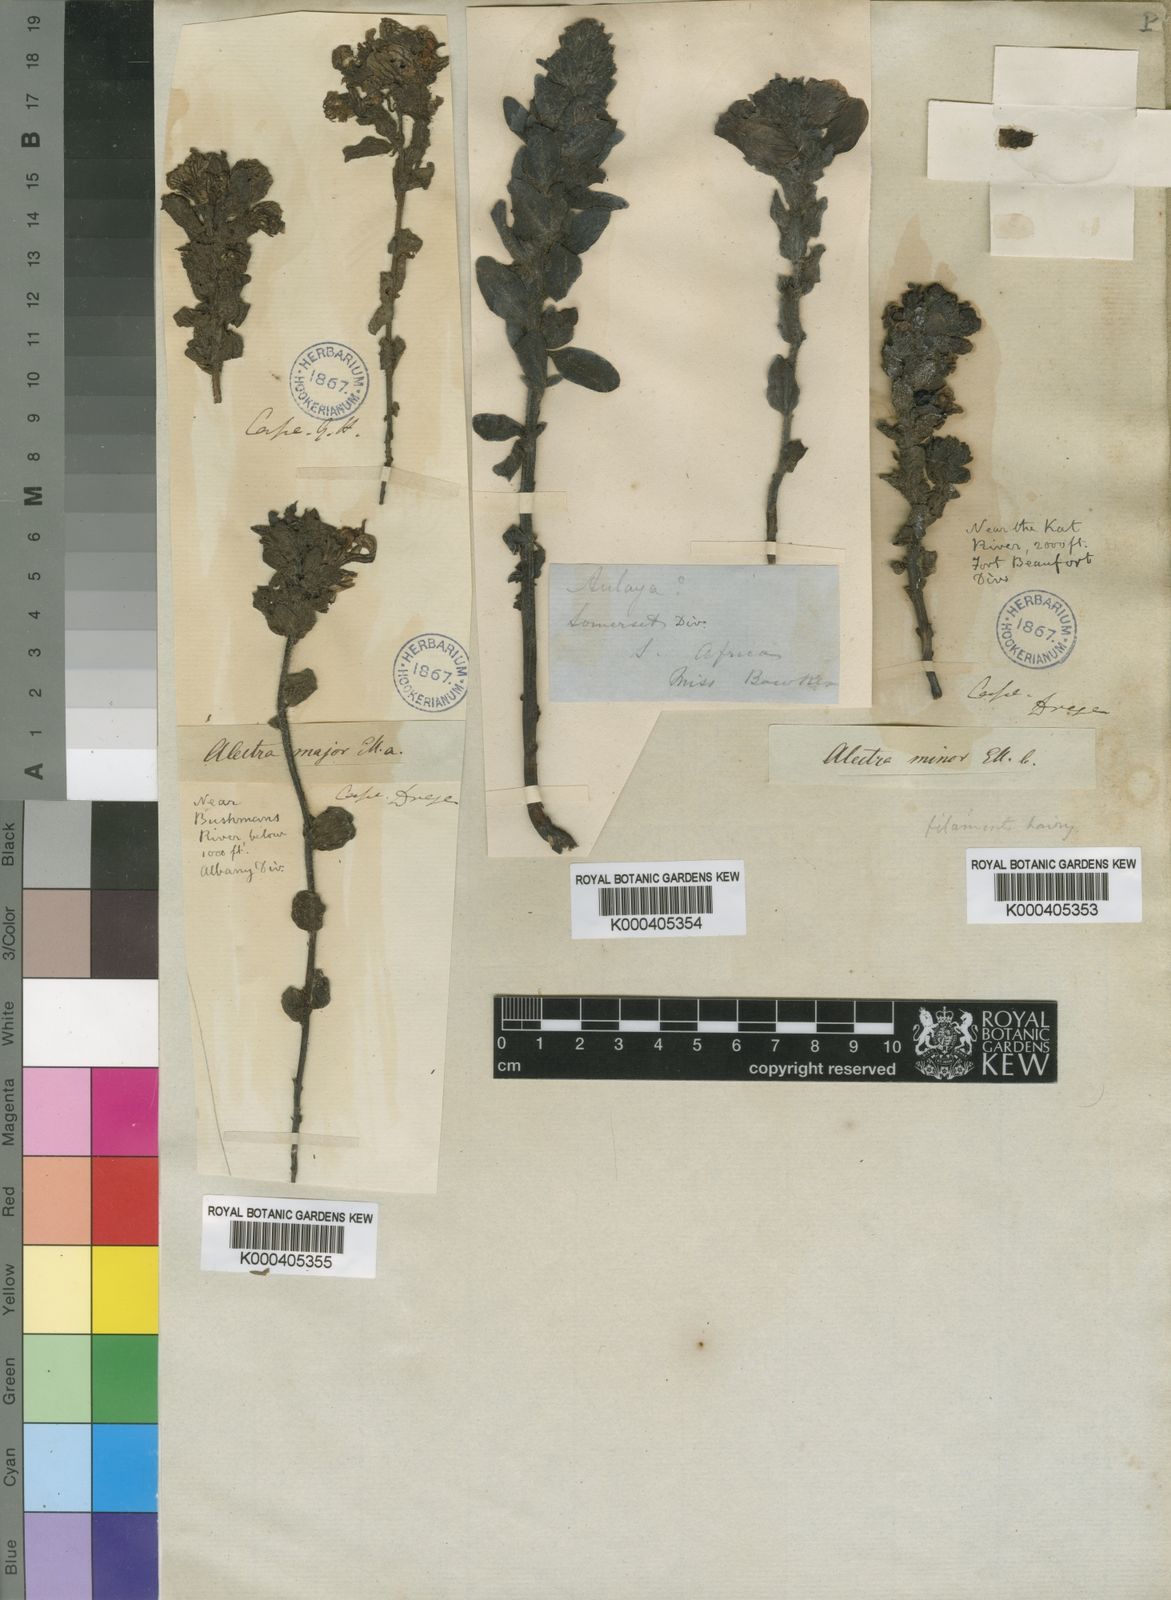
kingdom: Plantae
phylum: Tracheophyta
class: Magnoliopsida
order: Lamiales
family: Orobanchaceae
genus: Alectra
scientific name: Alectra capensis
